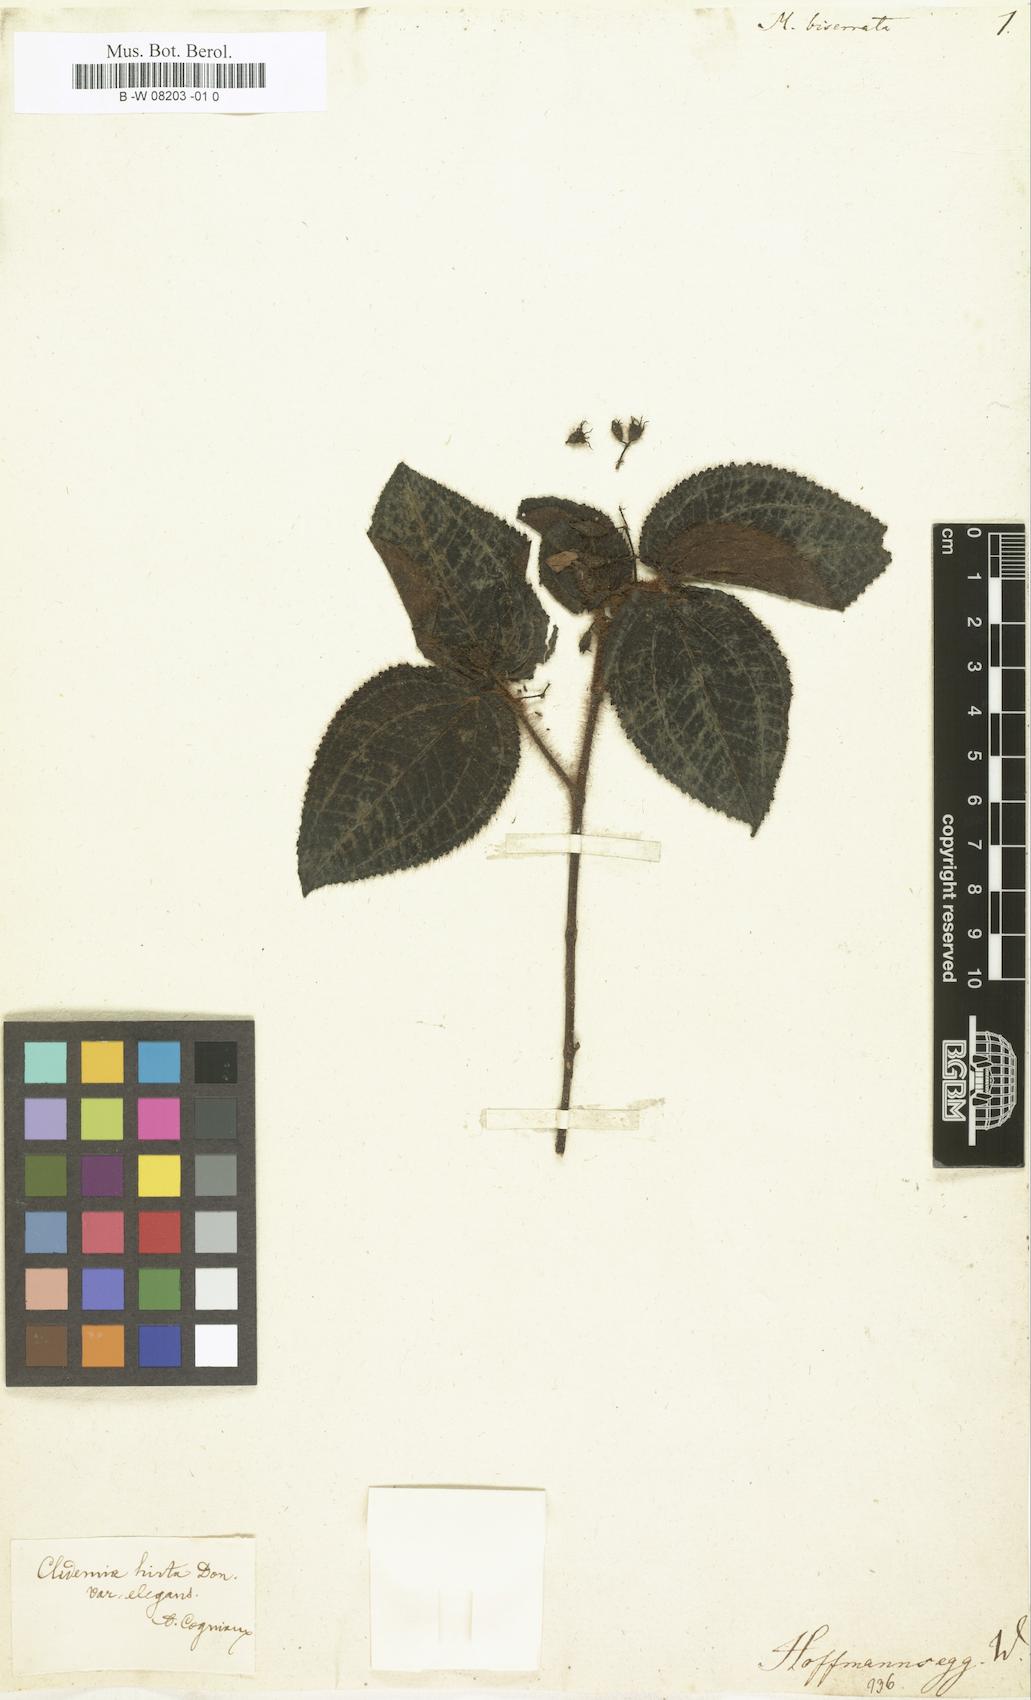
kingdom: Plantae
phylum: Tracheophyta
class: Magnoliopsida
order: Myrtales
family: Melastomataceae
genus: Miconia
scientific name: Miconia biserrata
